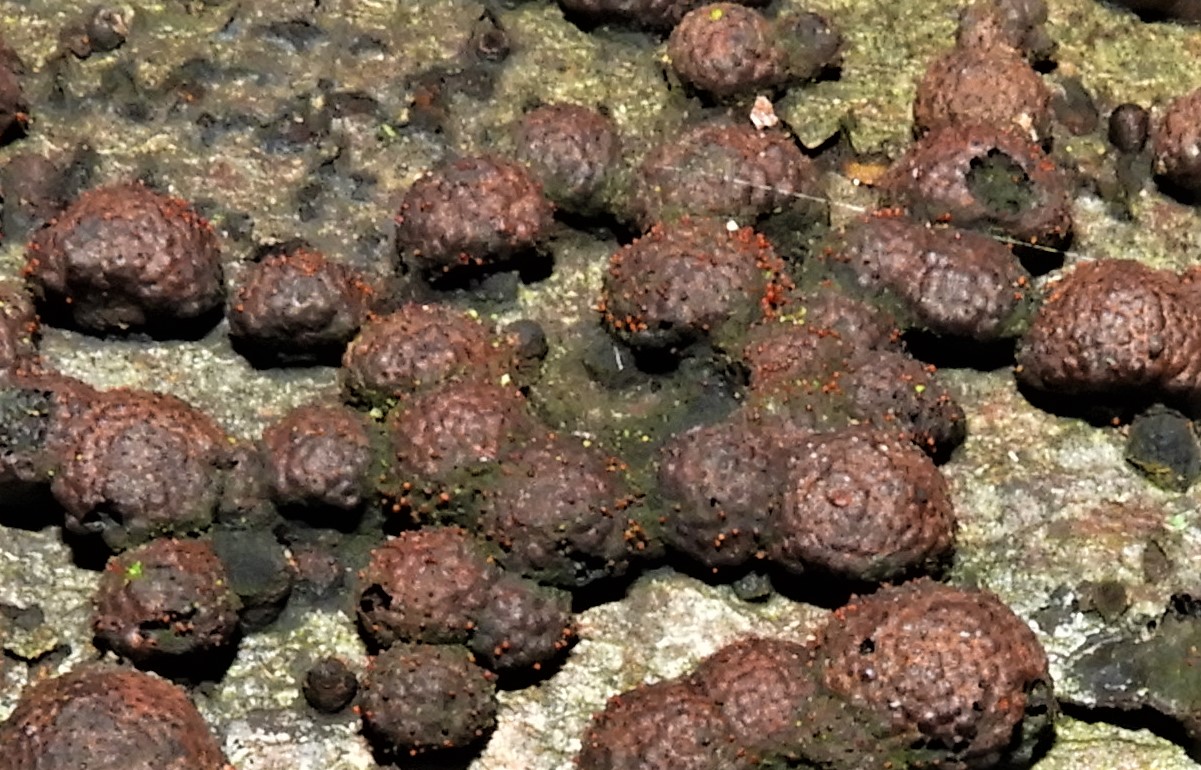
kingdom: Fungi
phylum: Ascomycota
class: Sordariomycetes
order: Hypocreales
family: Nectriaceae
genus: Cosmospora
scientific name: Cosmospora arxii
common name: kuljordbær-cinnobersvamp
